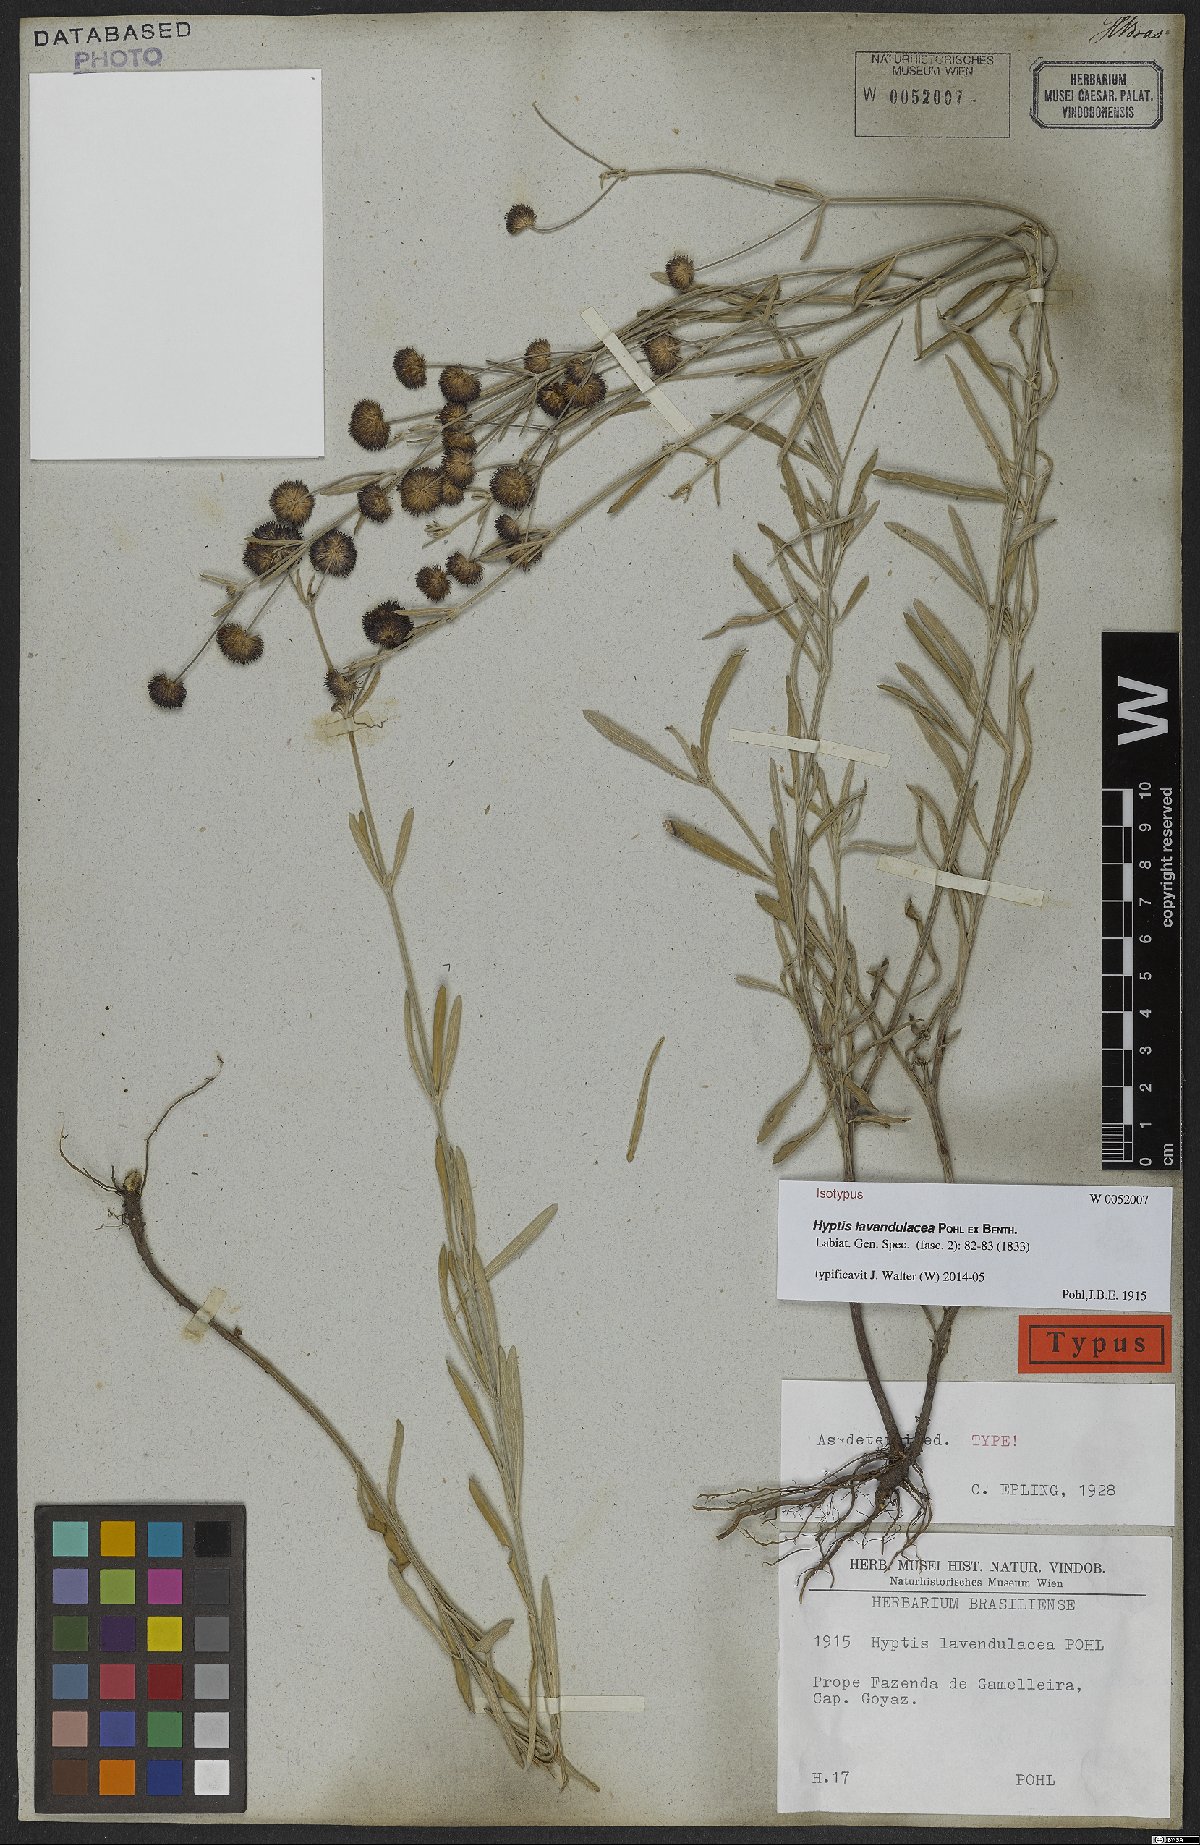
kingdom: Plantae
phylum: Tracheophyta
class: Magnoliopsida
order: Lamiales
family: Lamiaceae
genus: Hyptis
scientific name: Hyptis lavandulacea
